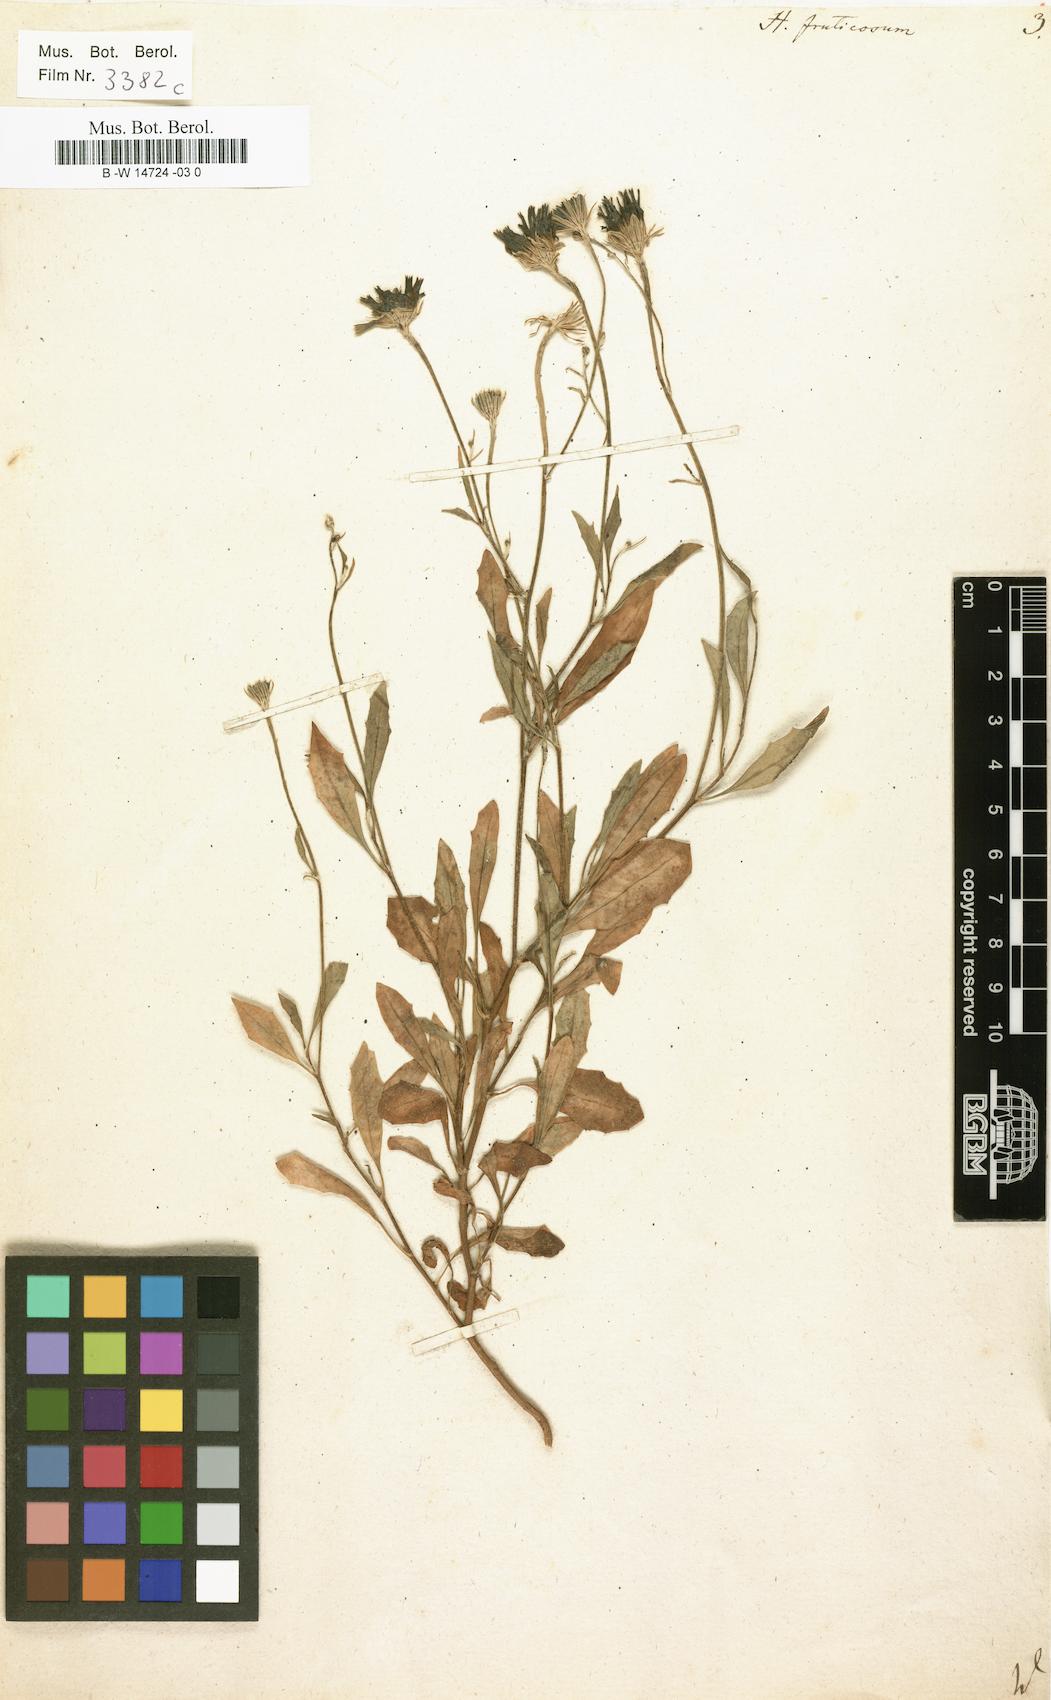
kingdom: Plantae
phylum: Tracheophyta
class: Magnoliopsida
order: Asterales
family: Asteraceae
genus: Tolpis
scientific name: Tolpis succulenta
